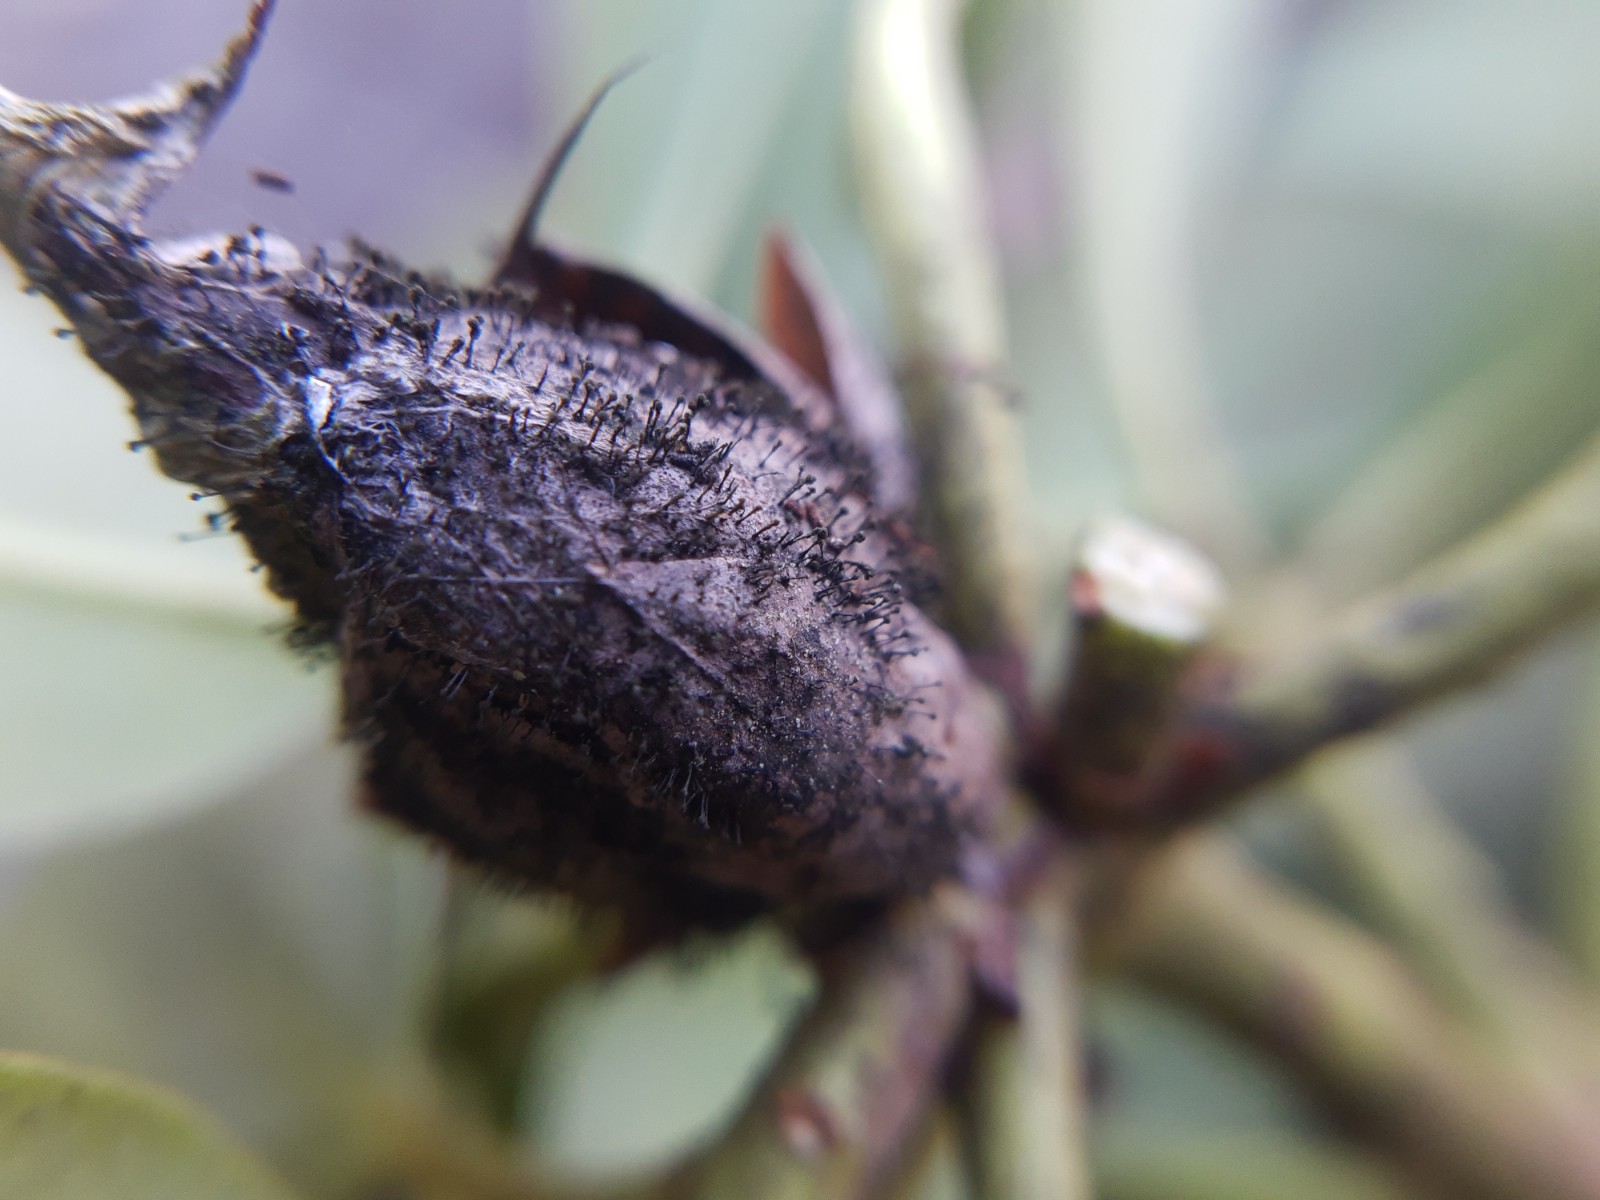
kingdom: Fungi
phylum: Ascomycota
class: Dothideomycetes
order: Pleosporales
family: Melanommataceae
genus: Seifertia
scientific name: Seifertia azaleae
